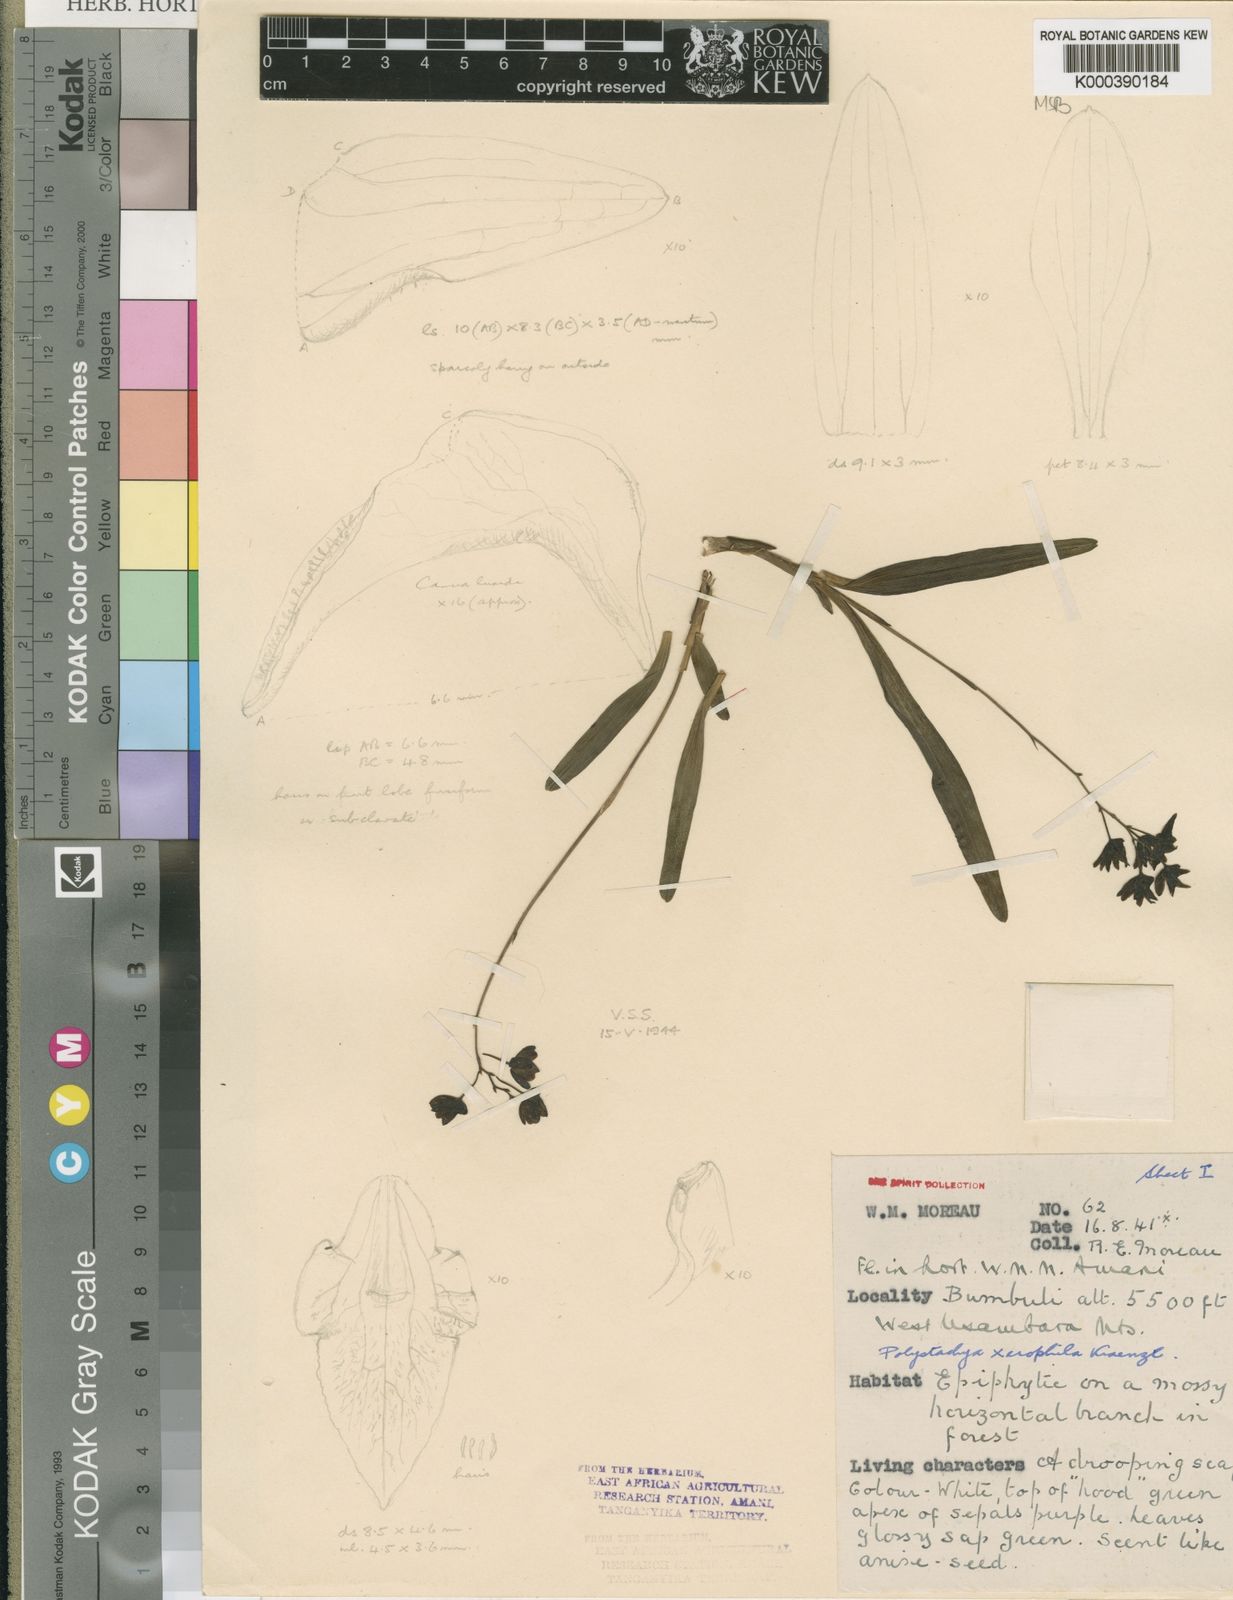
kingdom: Plantae
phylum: Tracheophyta
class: Liliopsida
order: Asparagales
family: Orchidaceae
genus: Polystachya
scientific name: Polystachya xerophila
